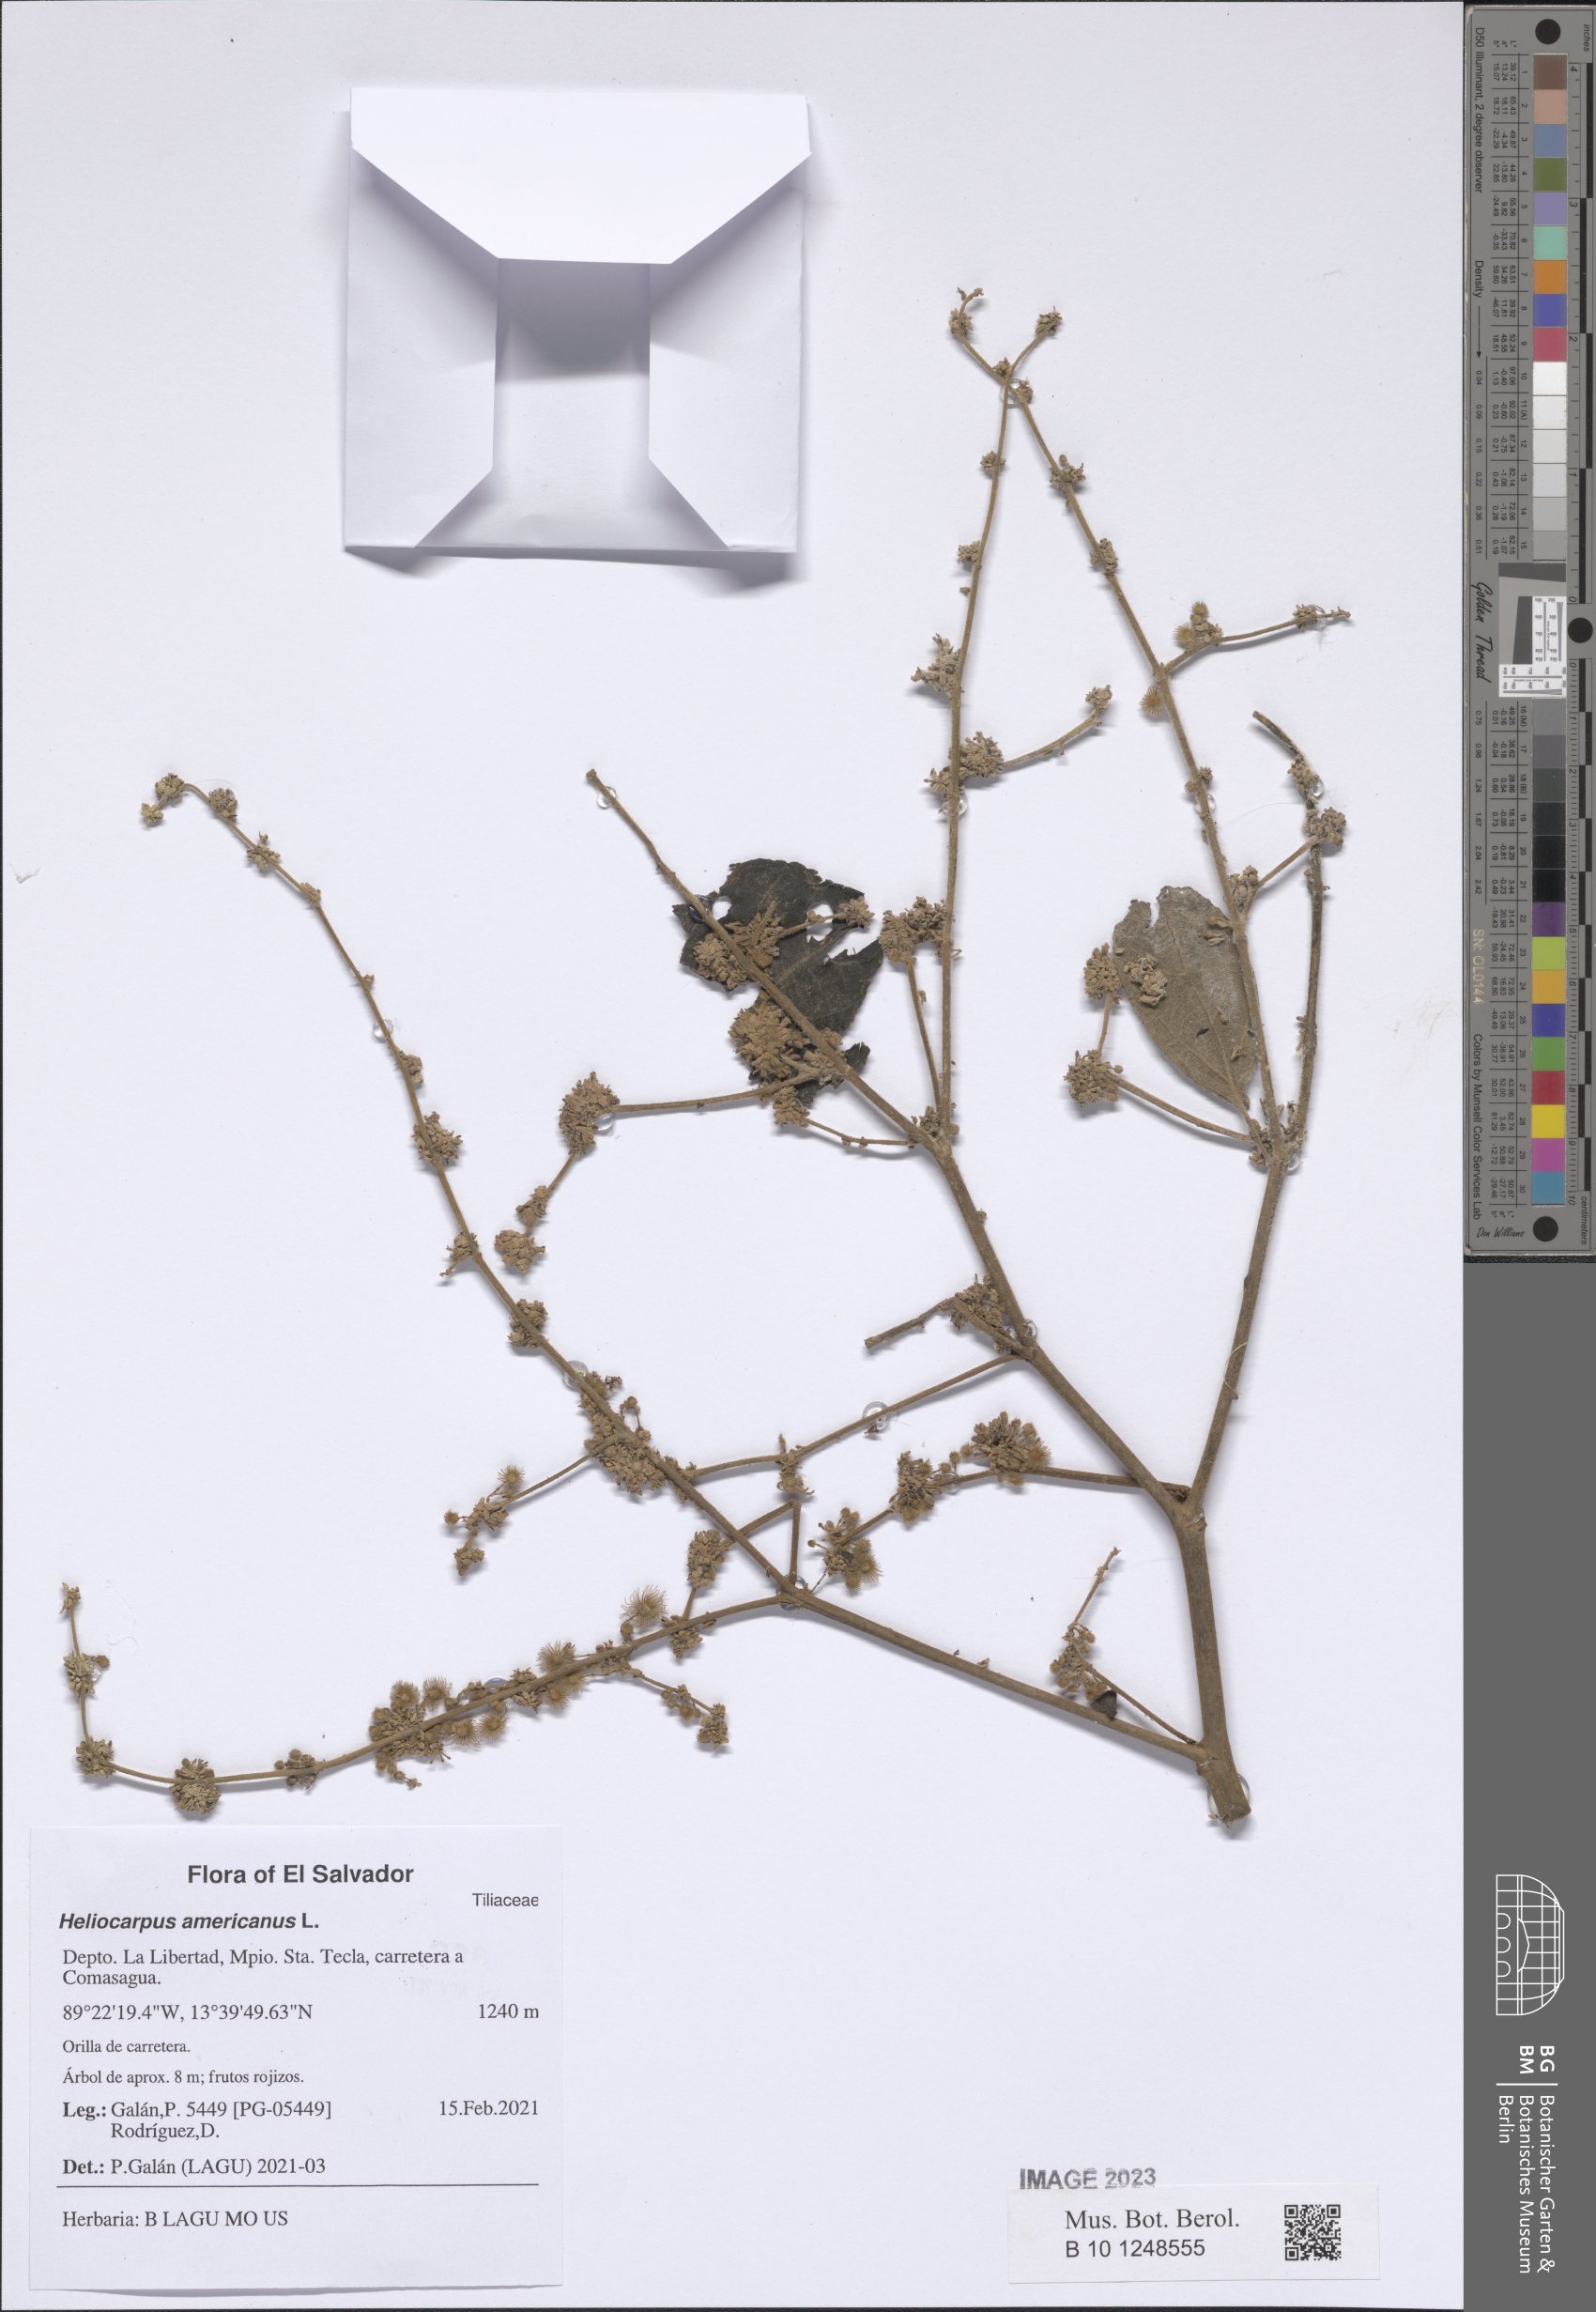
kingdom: Plantae
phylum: Tracheophyta
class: Magnoliopsida
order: Malvales
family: Malvaceae
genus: Heliocarpus
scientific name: Heliocarpus americanus
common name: White moho
